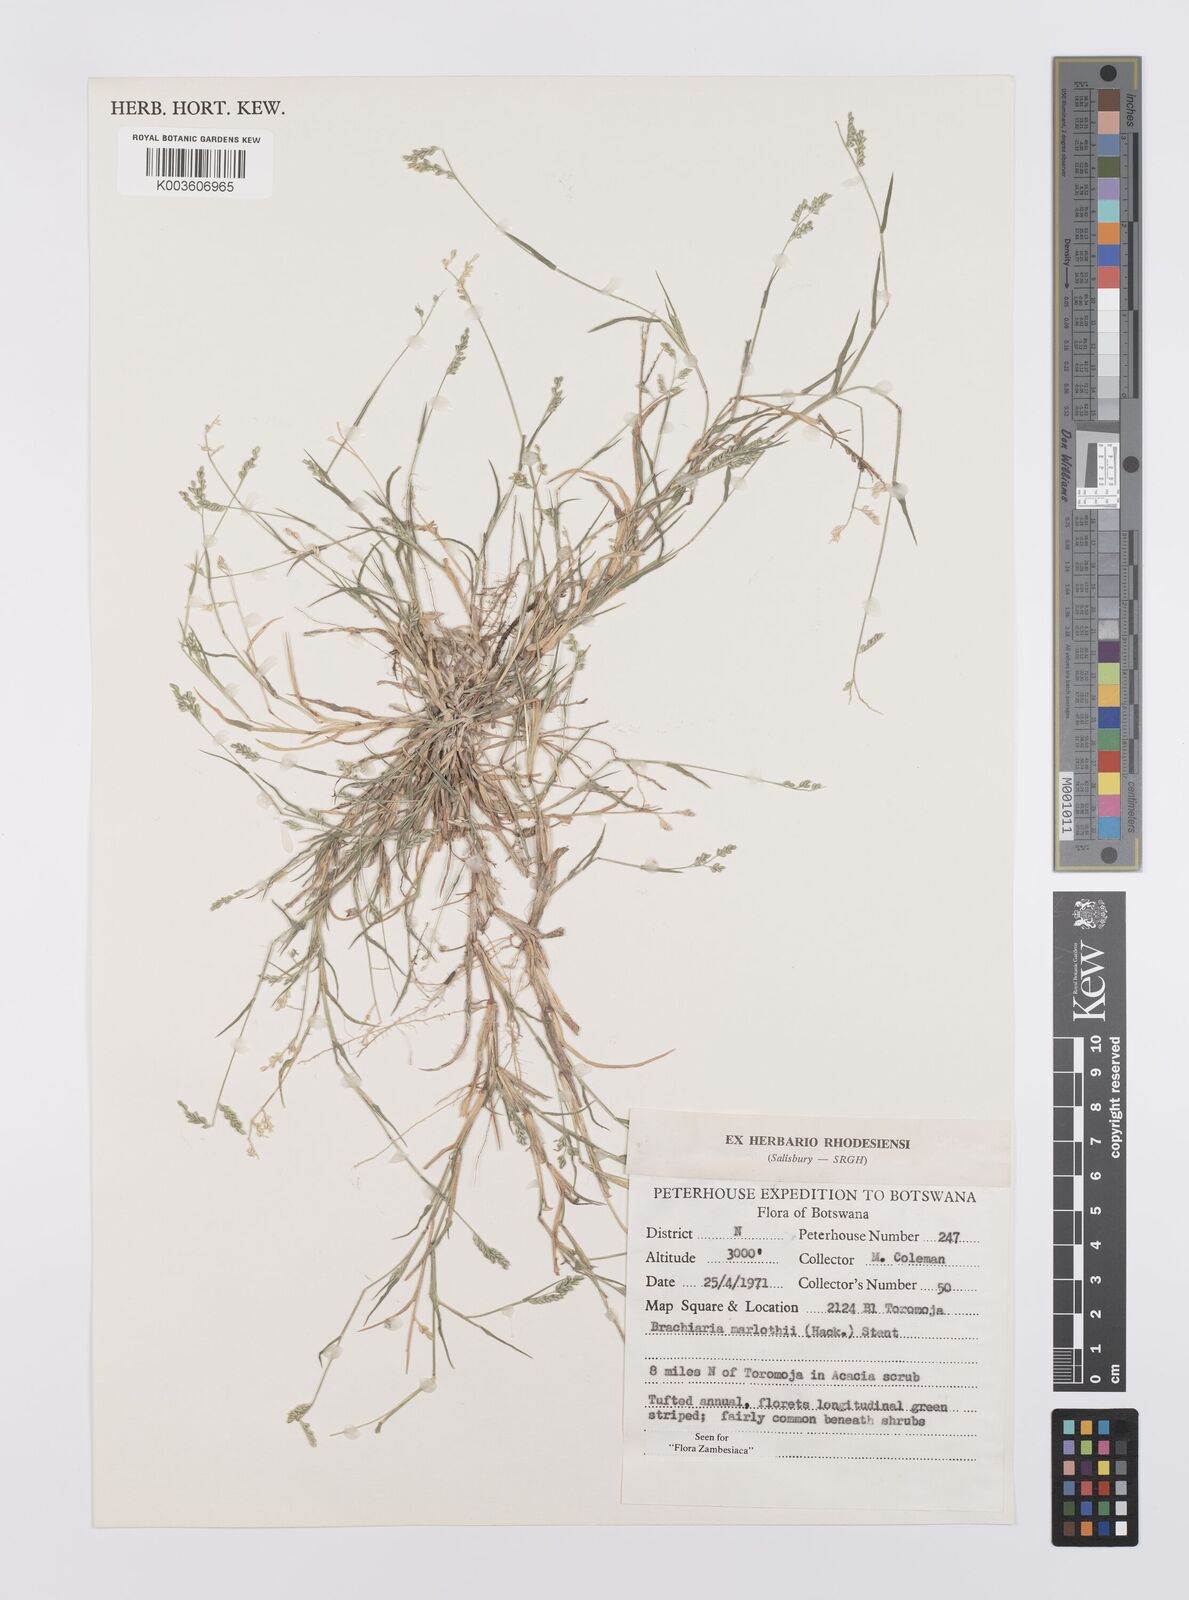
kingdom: Plantae
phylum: Tracheophyta
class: Liliopsida
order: Poales
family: Poaceae
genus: Urochloa
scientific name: Urochloa Brachiaria marlothii
